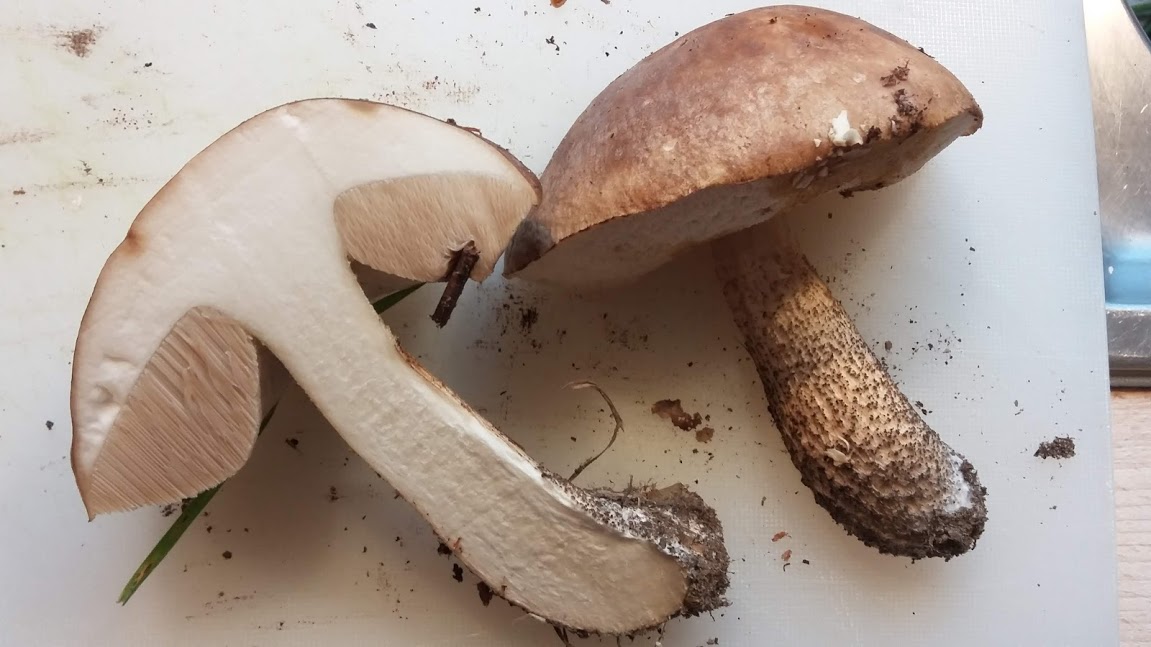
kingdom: Fungi
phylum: Basidiomycota
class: Agaricomycetes
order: Boletales
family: Boletaceae
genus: Leccinum
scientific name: Leccinum
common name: skælrørhat
